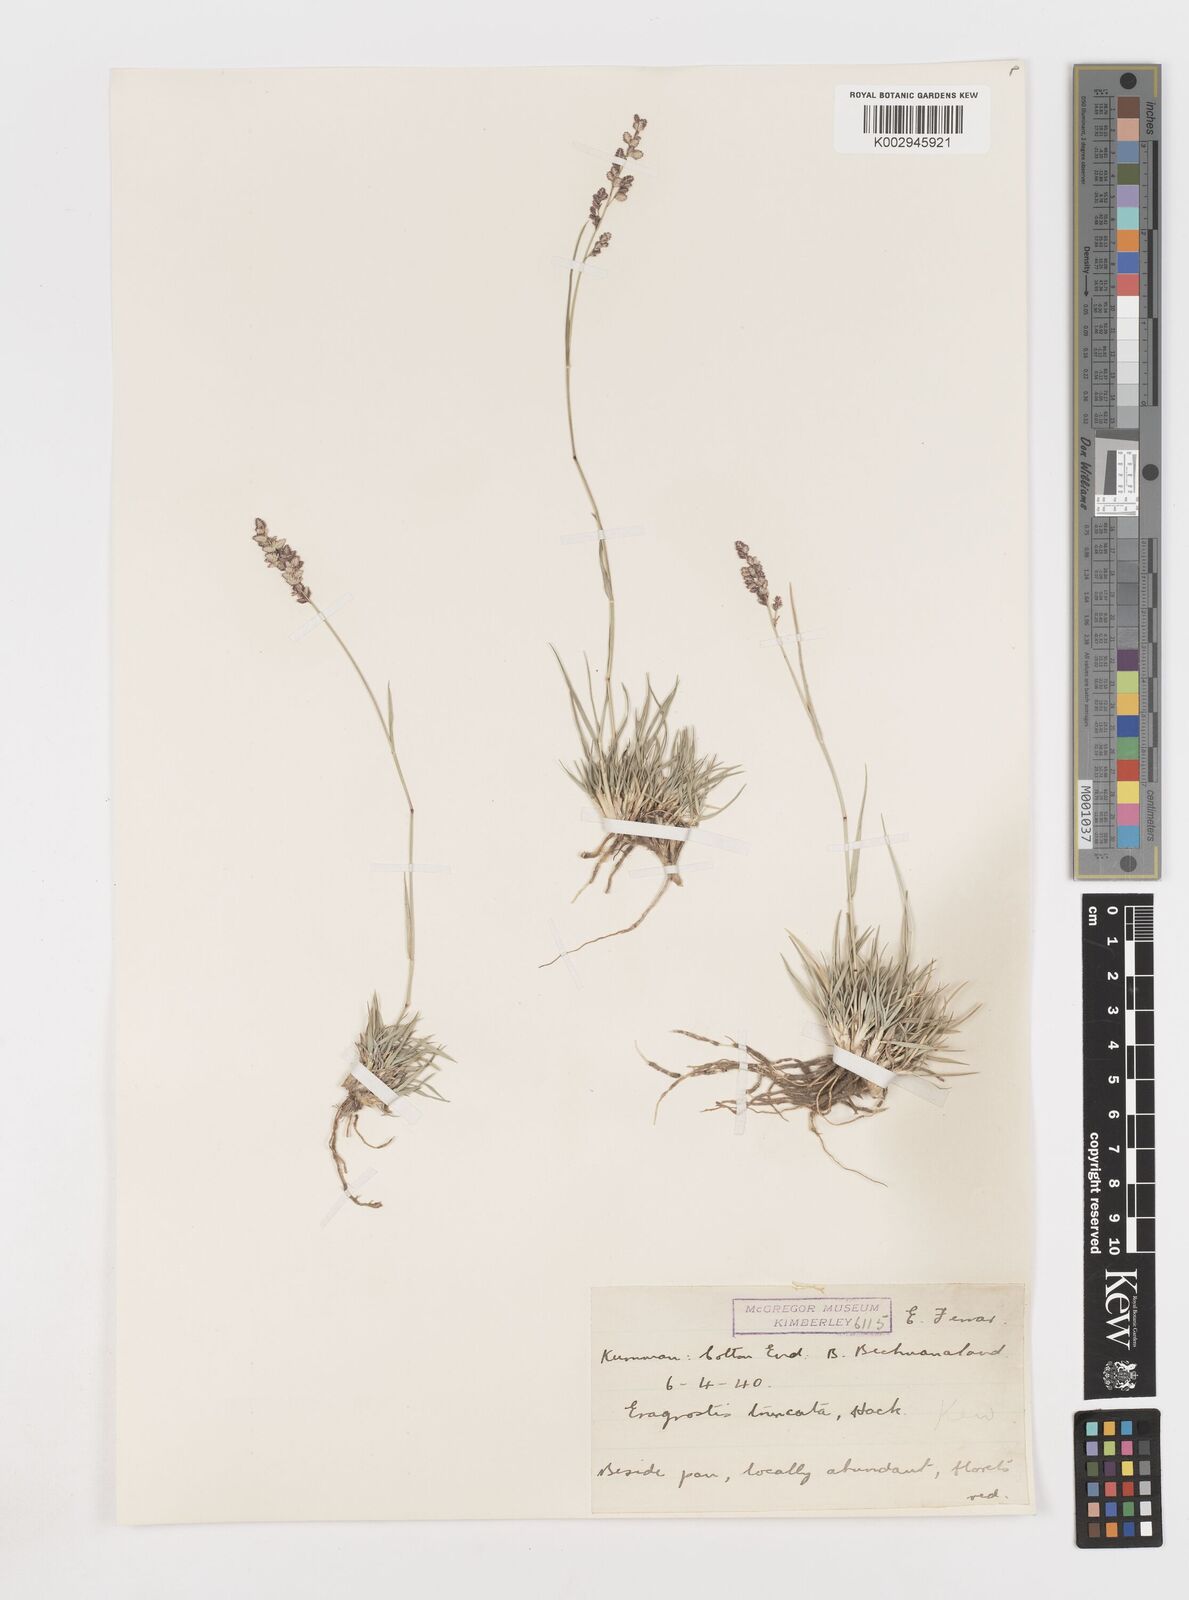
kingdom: Plantae
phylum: Tracheophyta
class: Liliopsida
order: Poales
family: Poaceae
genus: Eragrostis
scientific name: Eragrostis truncata
